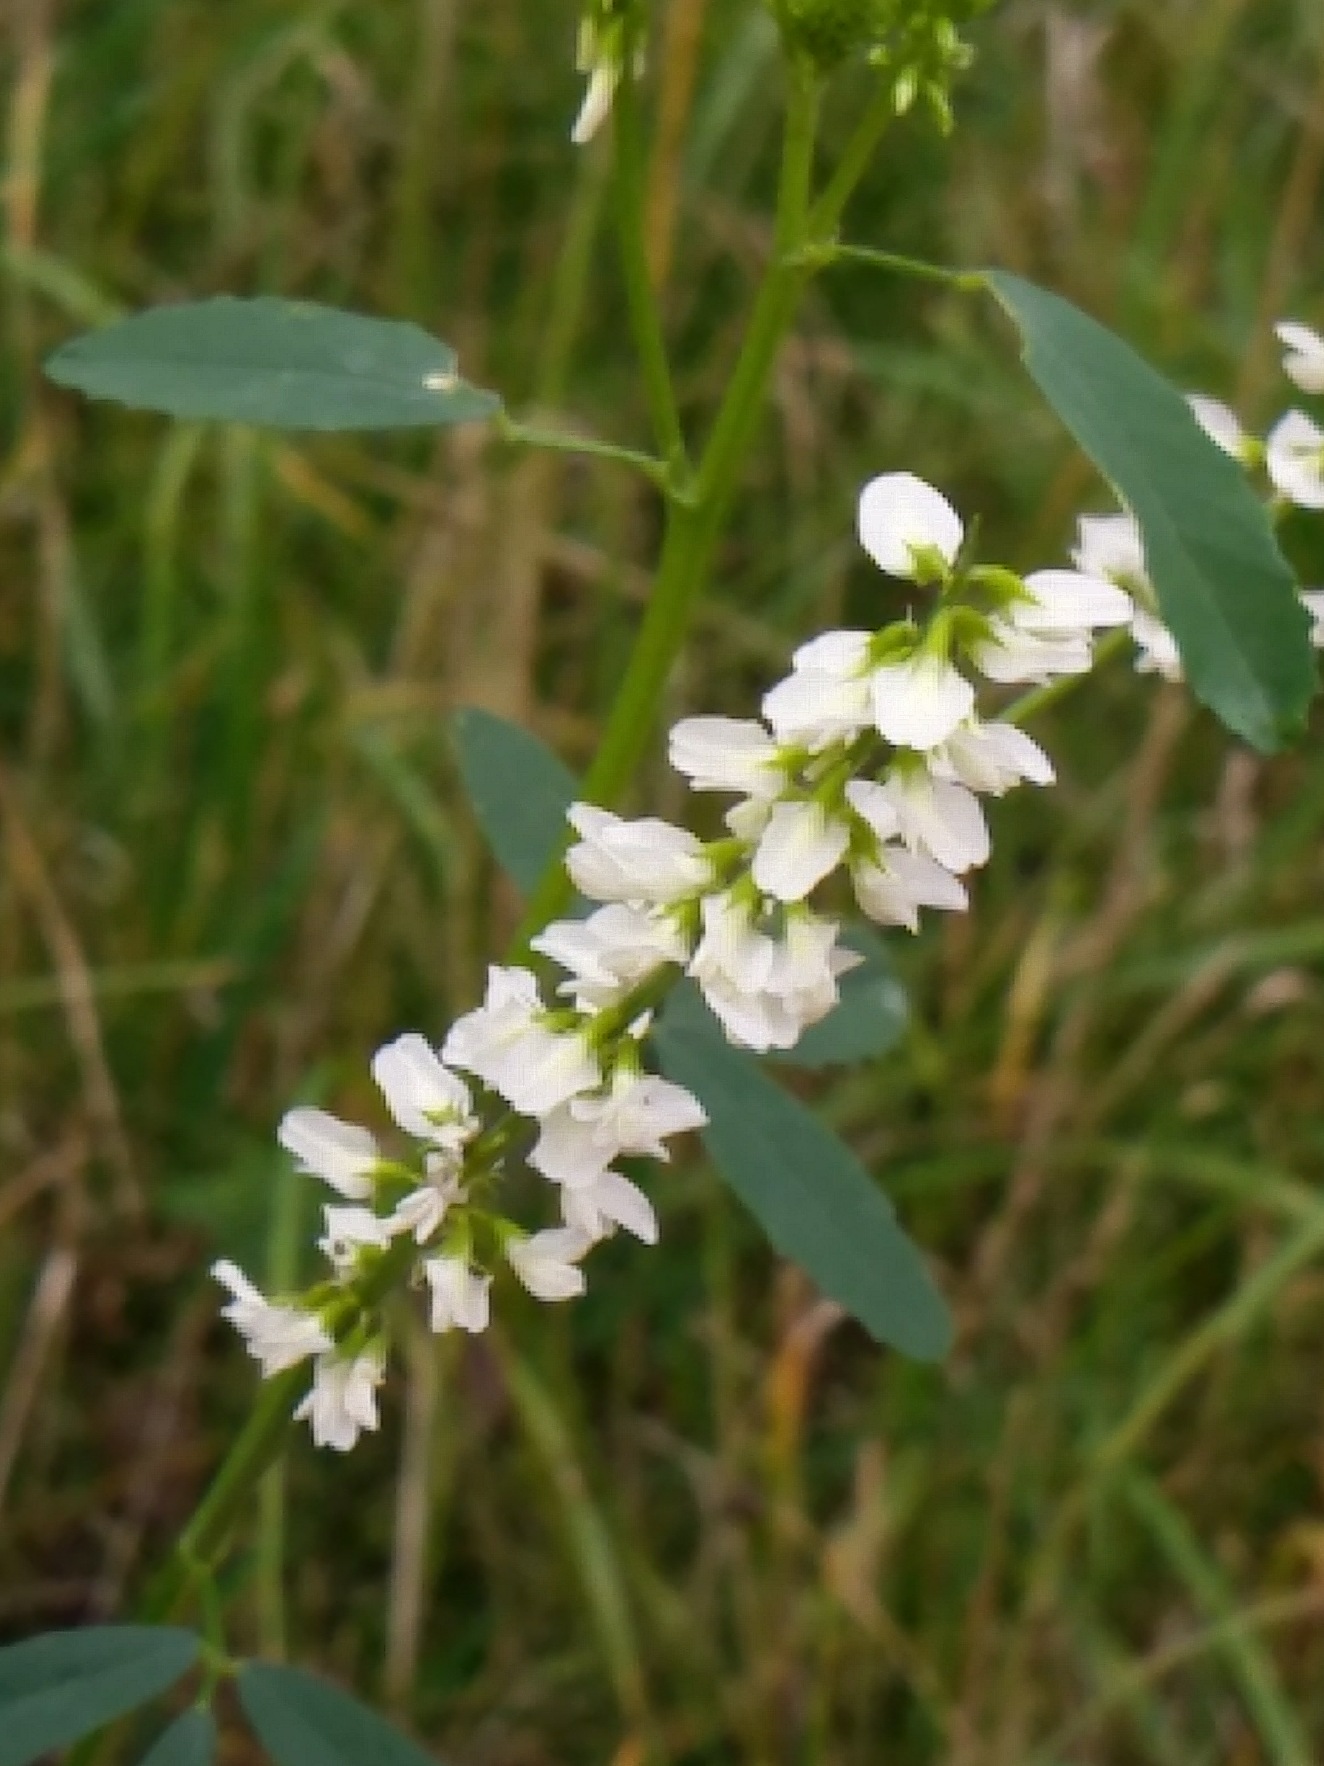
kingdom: Plantae
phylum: Tracheophyta
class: Magnoliopsida
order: Fabales
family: Fabaceae
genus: Melilotus
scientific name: Melilotus albus
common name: Hvid stenkløver
